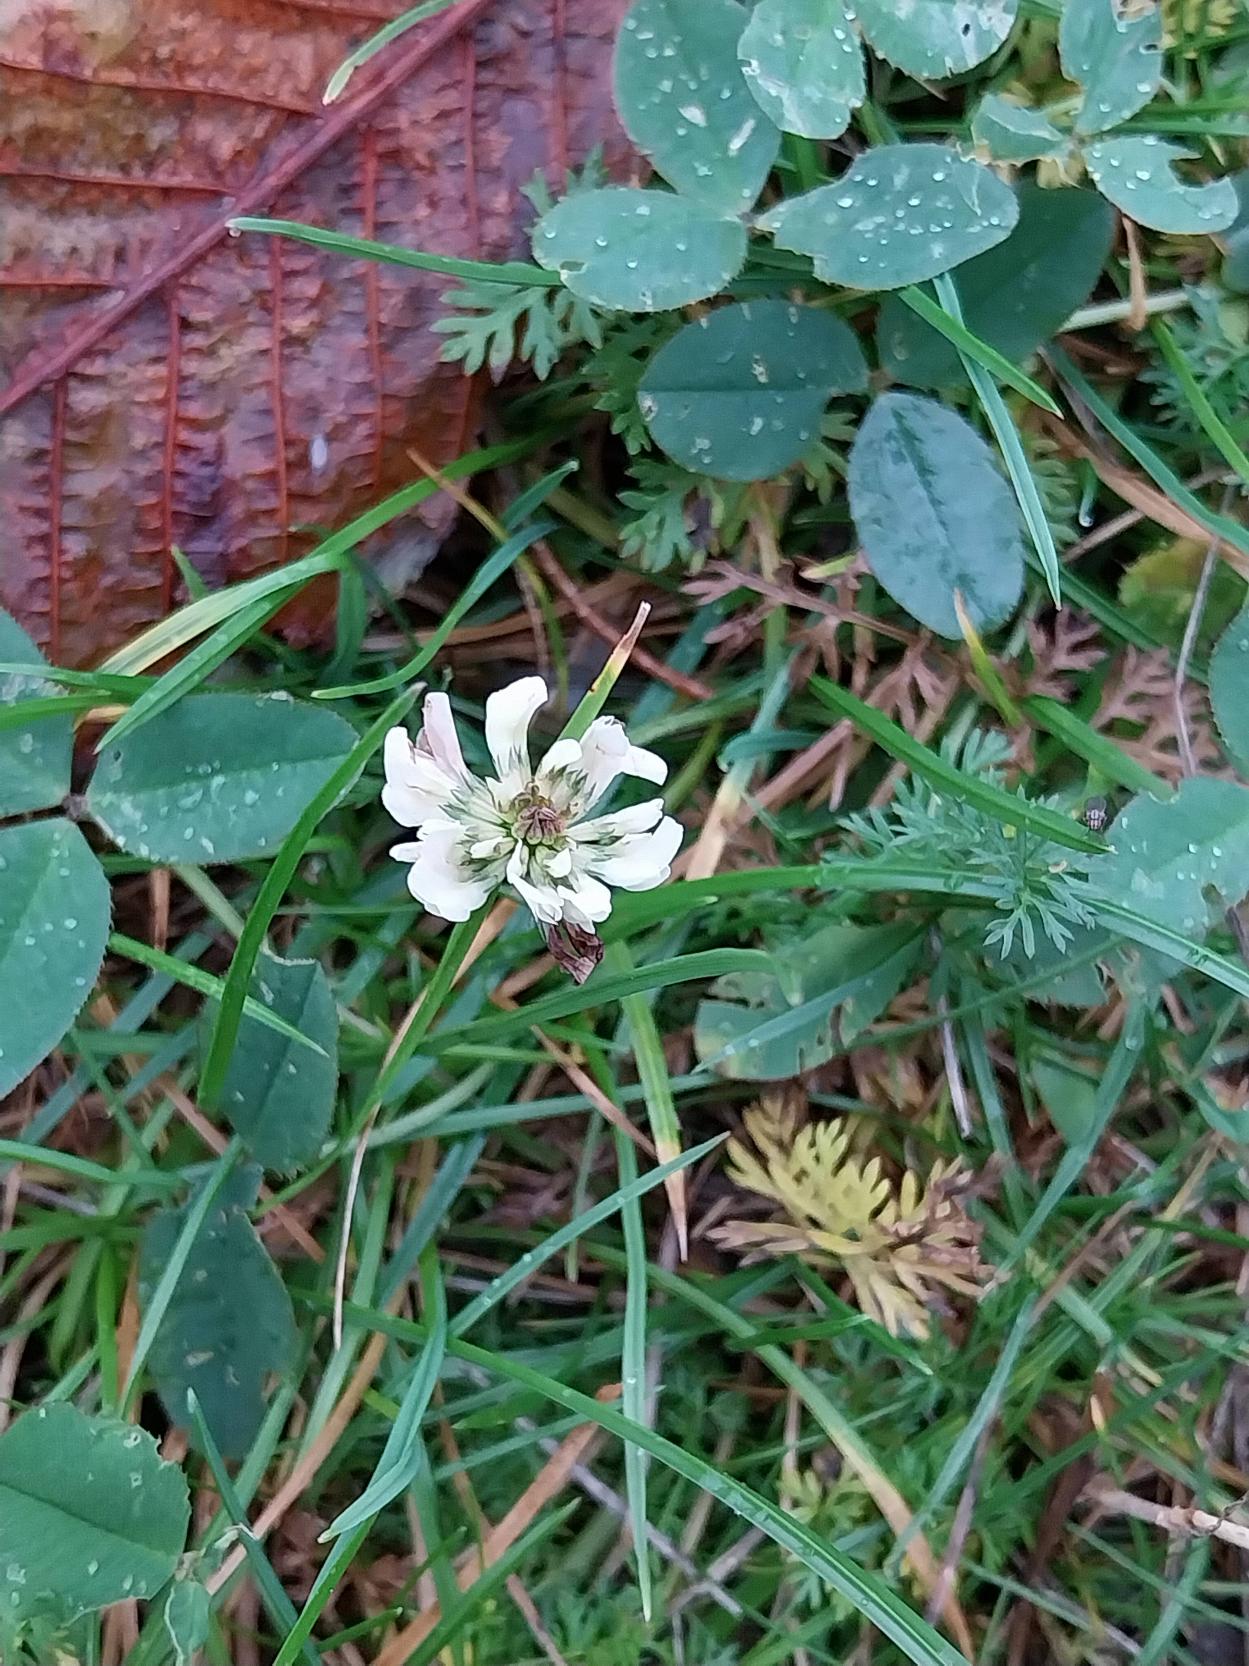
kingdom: Plantae
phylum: Tracheophyta
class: Magnoliopsida
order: Fabales
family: Fabaceae
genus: Trifolium
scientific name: Trifolium repens
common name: Hvid-kløver
